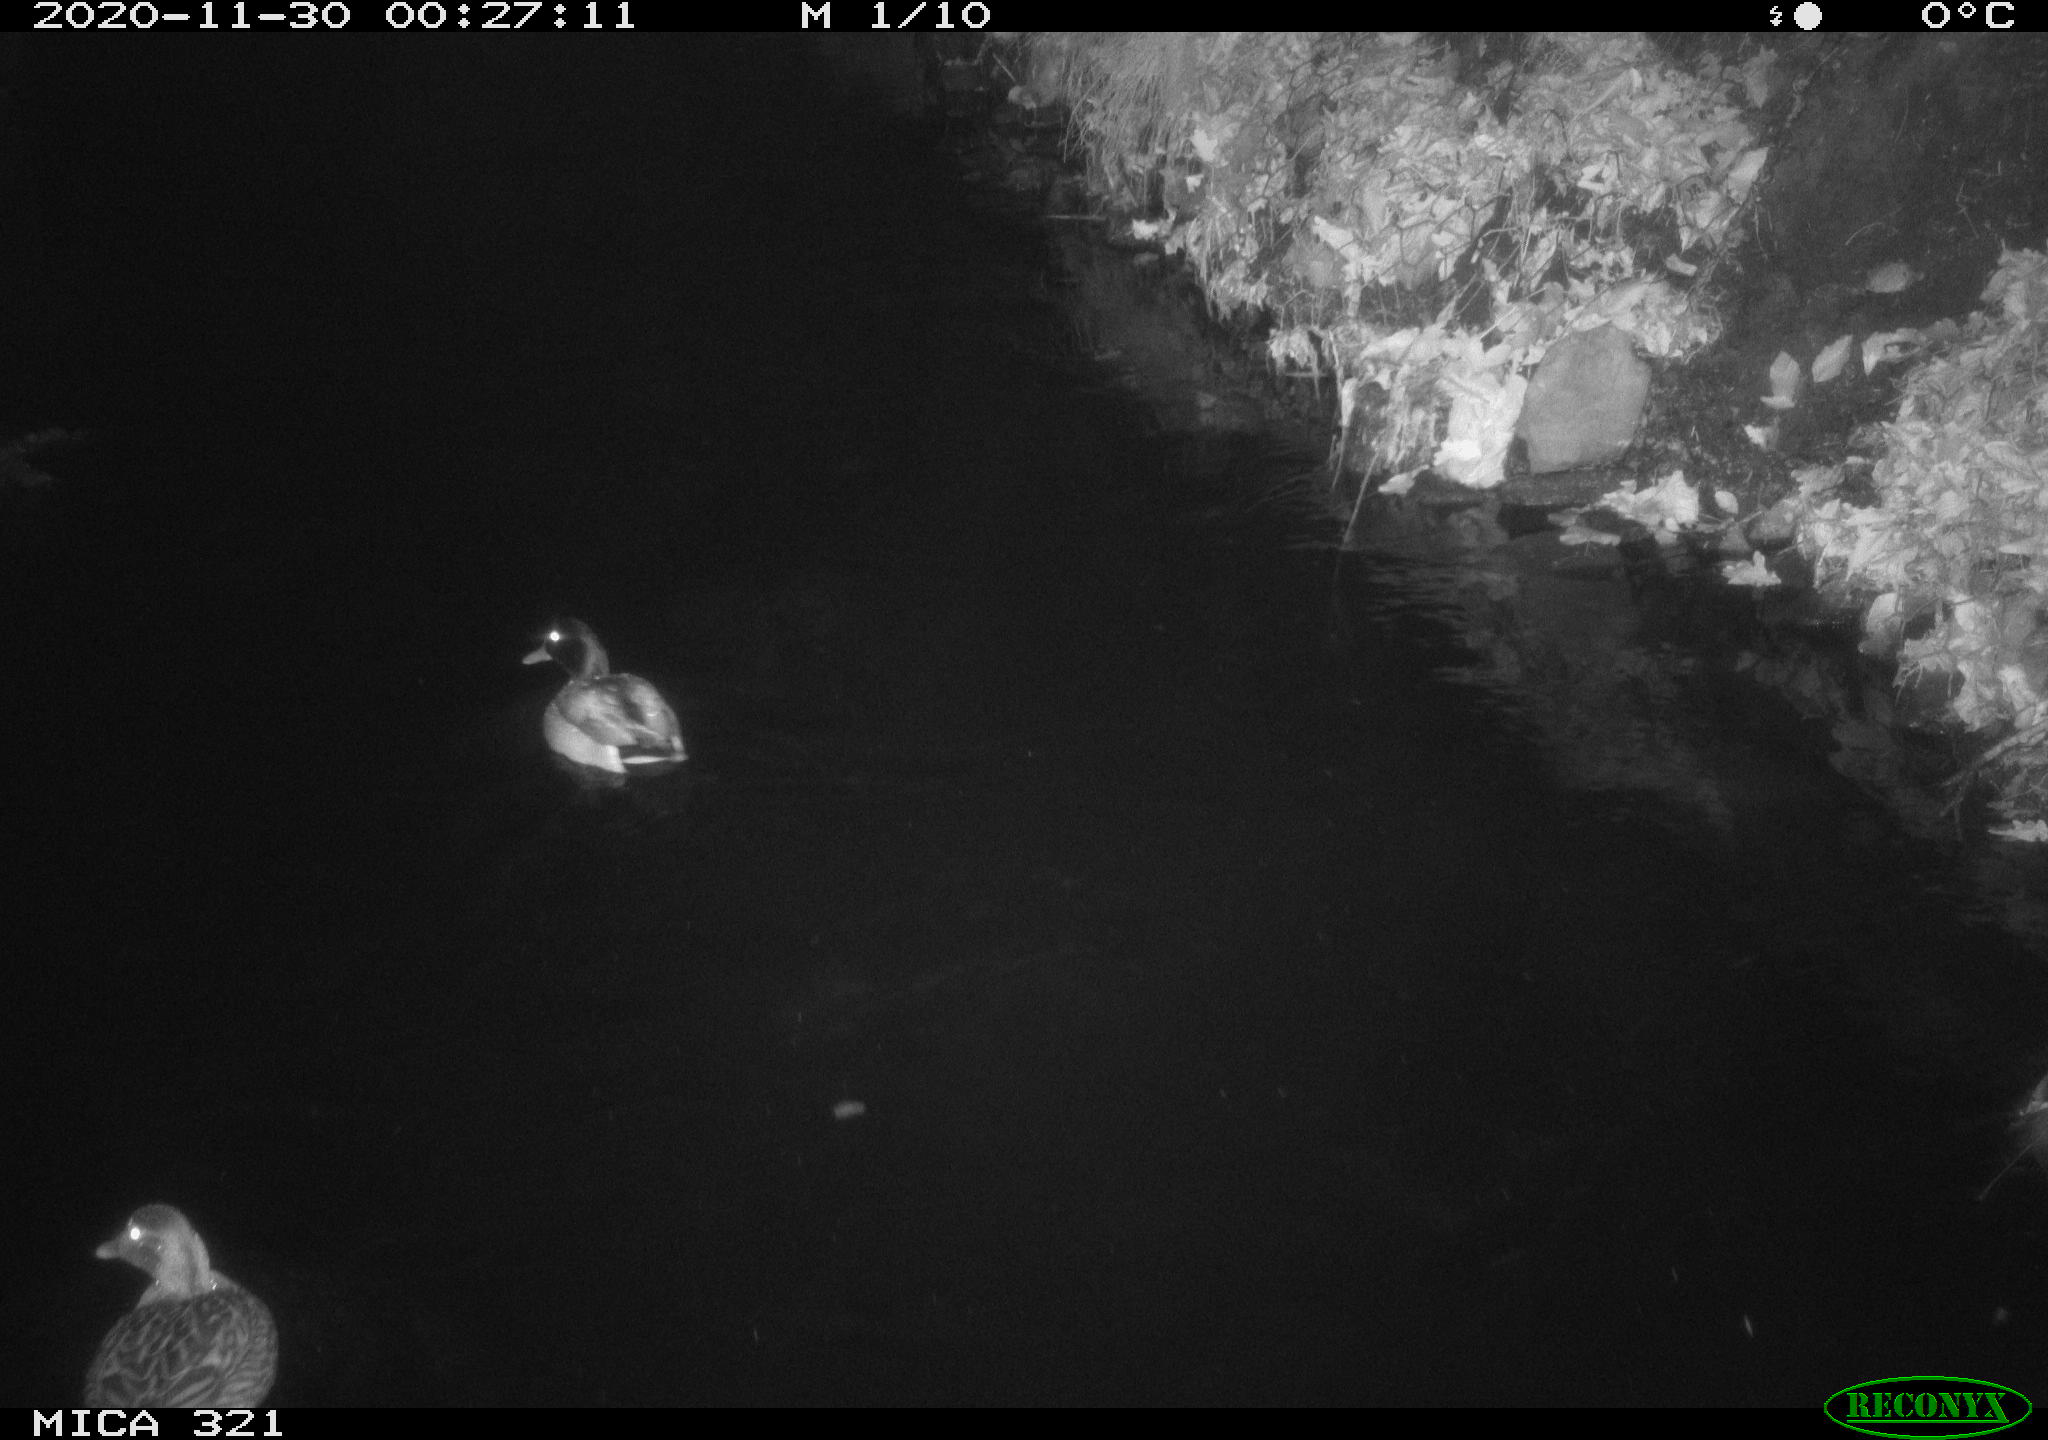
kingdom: Animalia
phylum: Chordata
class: Aves
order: Anseriformes
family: Anatidae
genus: Anas
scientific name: Anas platyrhynchos
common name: Mallard
